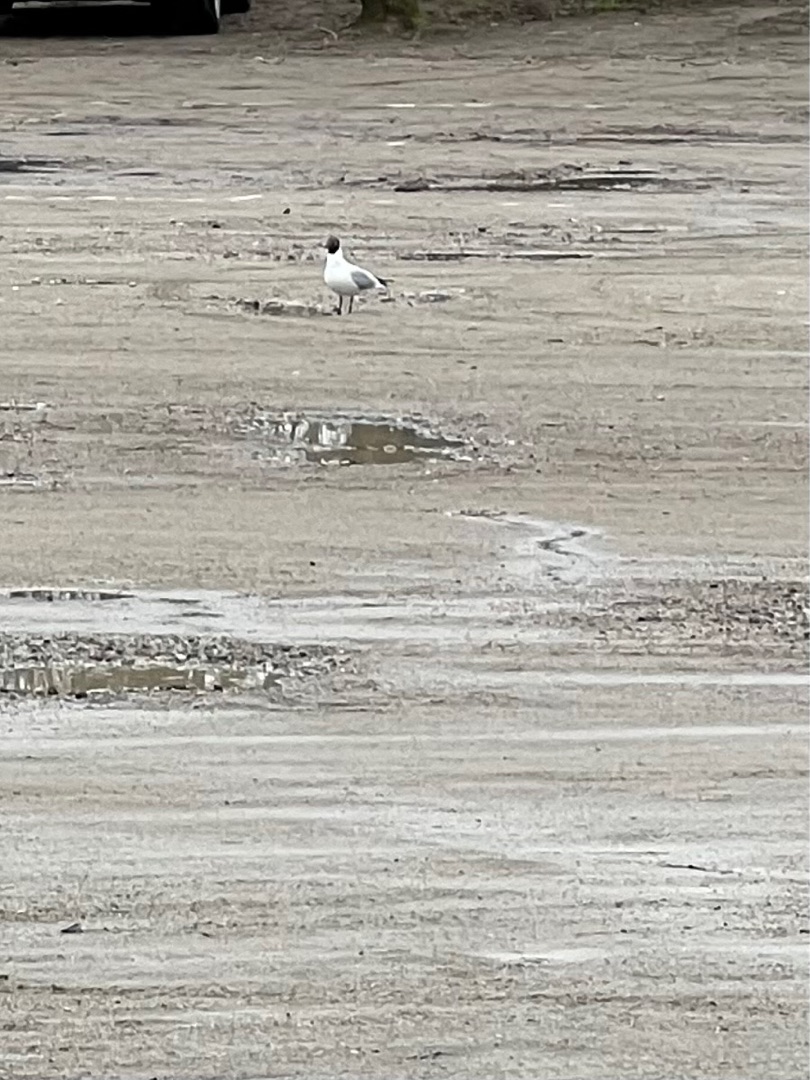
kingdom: Animalia
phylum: Chordata
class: Aves
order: Charadriiformes
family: Laridae
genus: Chroicocephalus
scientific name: Chroicocephalus ridibundus
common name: Hættemåge
